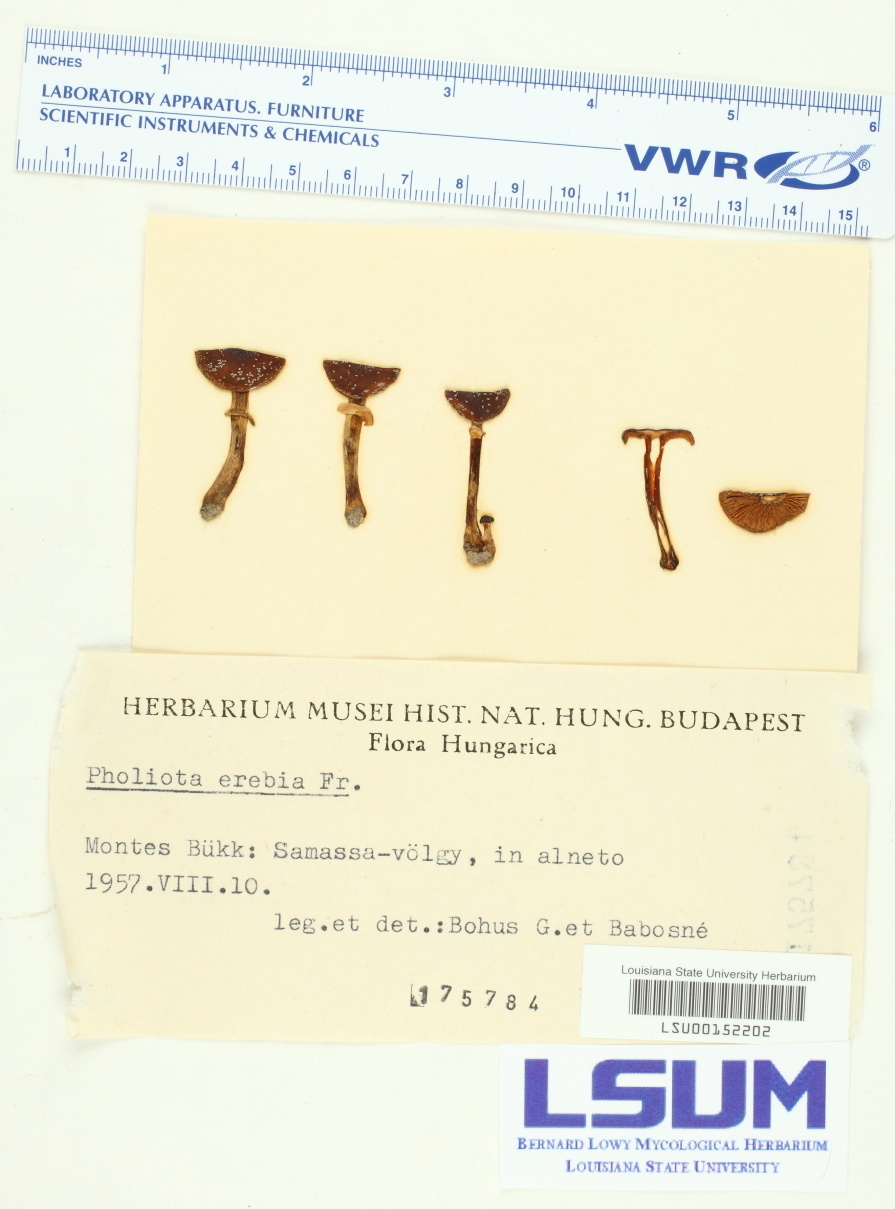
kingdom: Fungi
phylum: Basidiomycota
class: Agaricomycetes
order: Agaricales
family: Tubariaceae
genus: Cyclocybe
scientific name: Cyclocybe erebia
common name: Dark fieldcap
